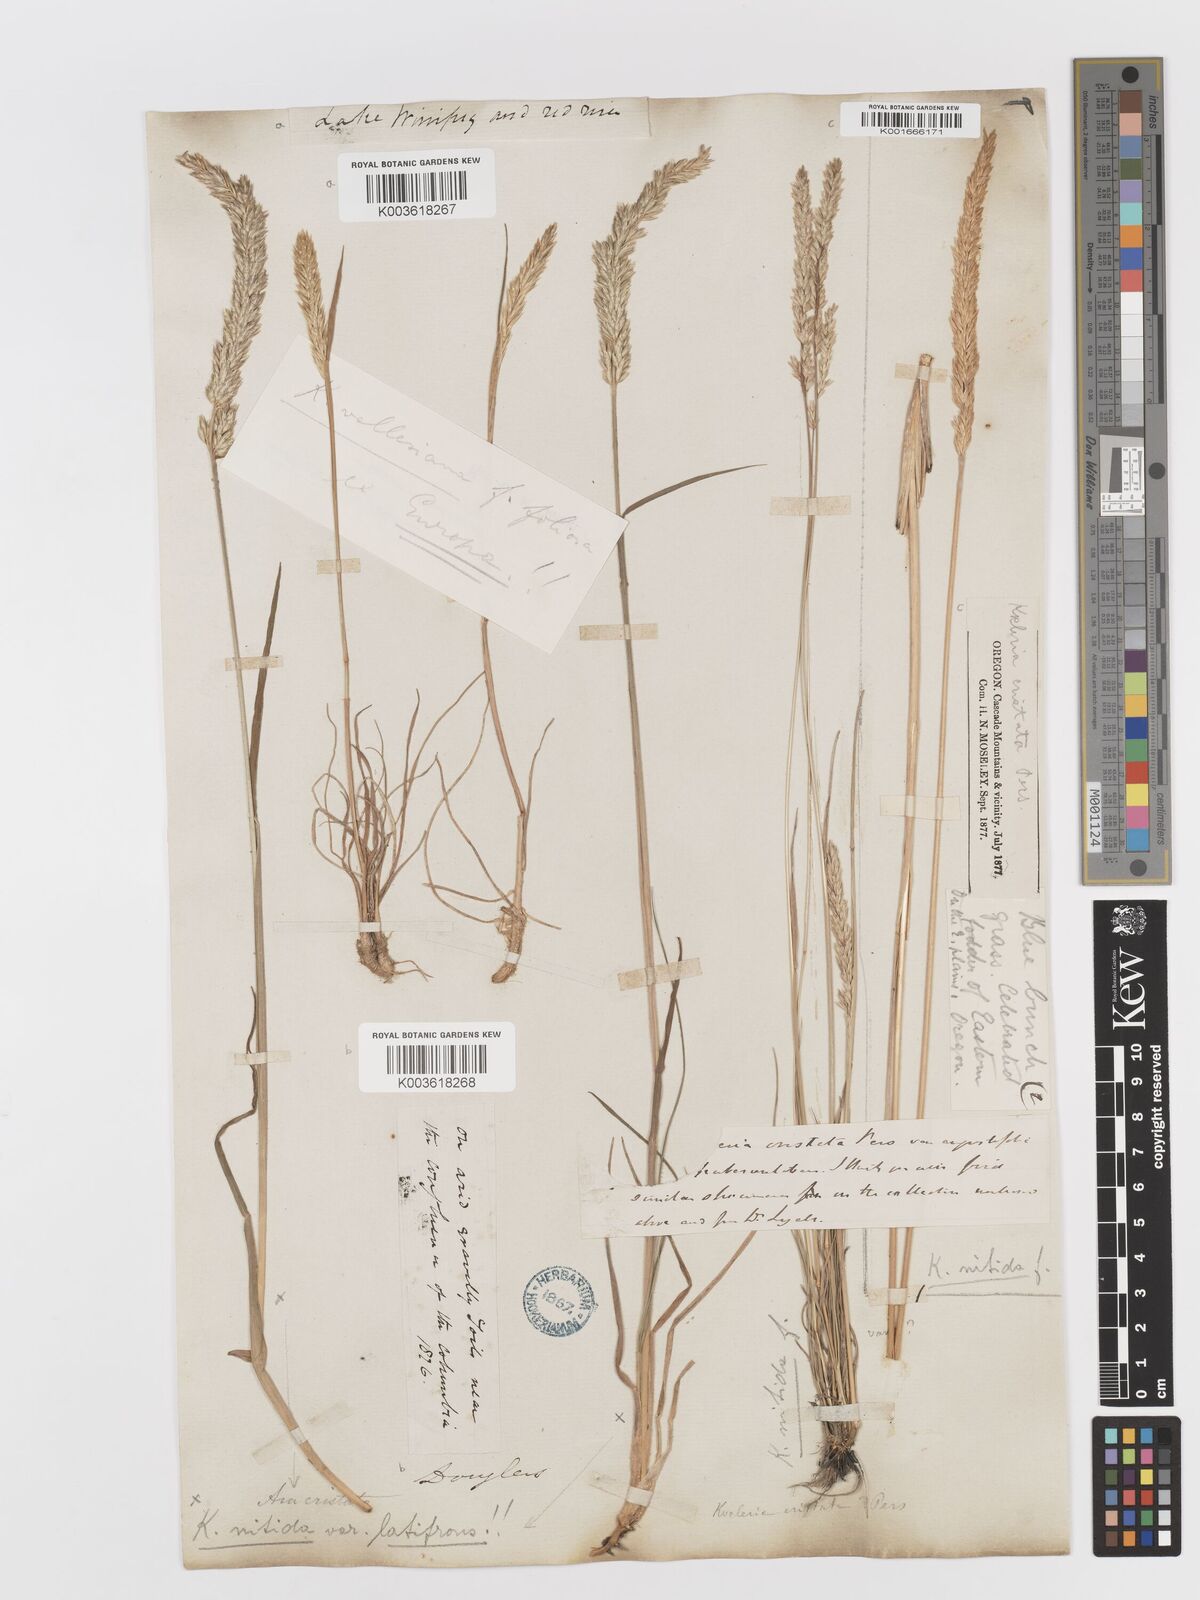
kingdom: Plantae
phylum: Tracheophyta
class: Liliopsida
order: Poales
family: Poaceae
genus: Koeleria
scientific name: Koeleria macrantha
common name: Crested hair-grass
